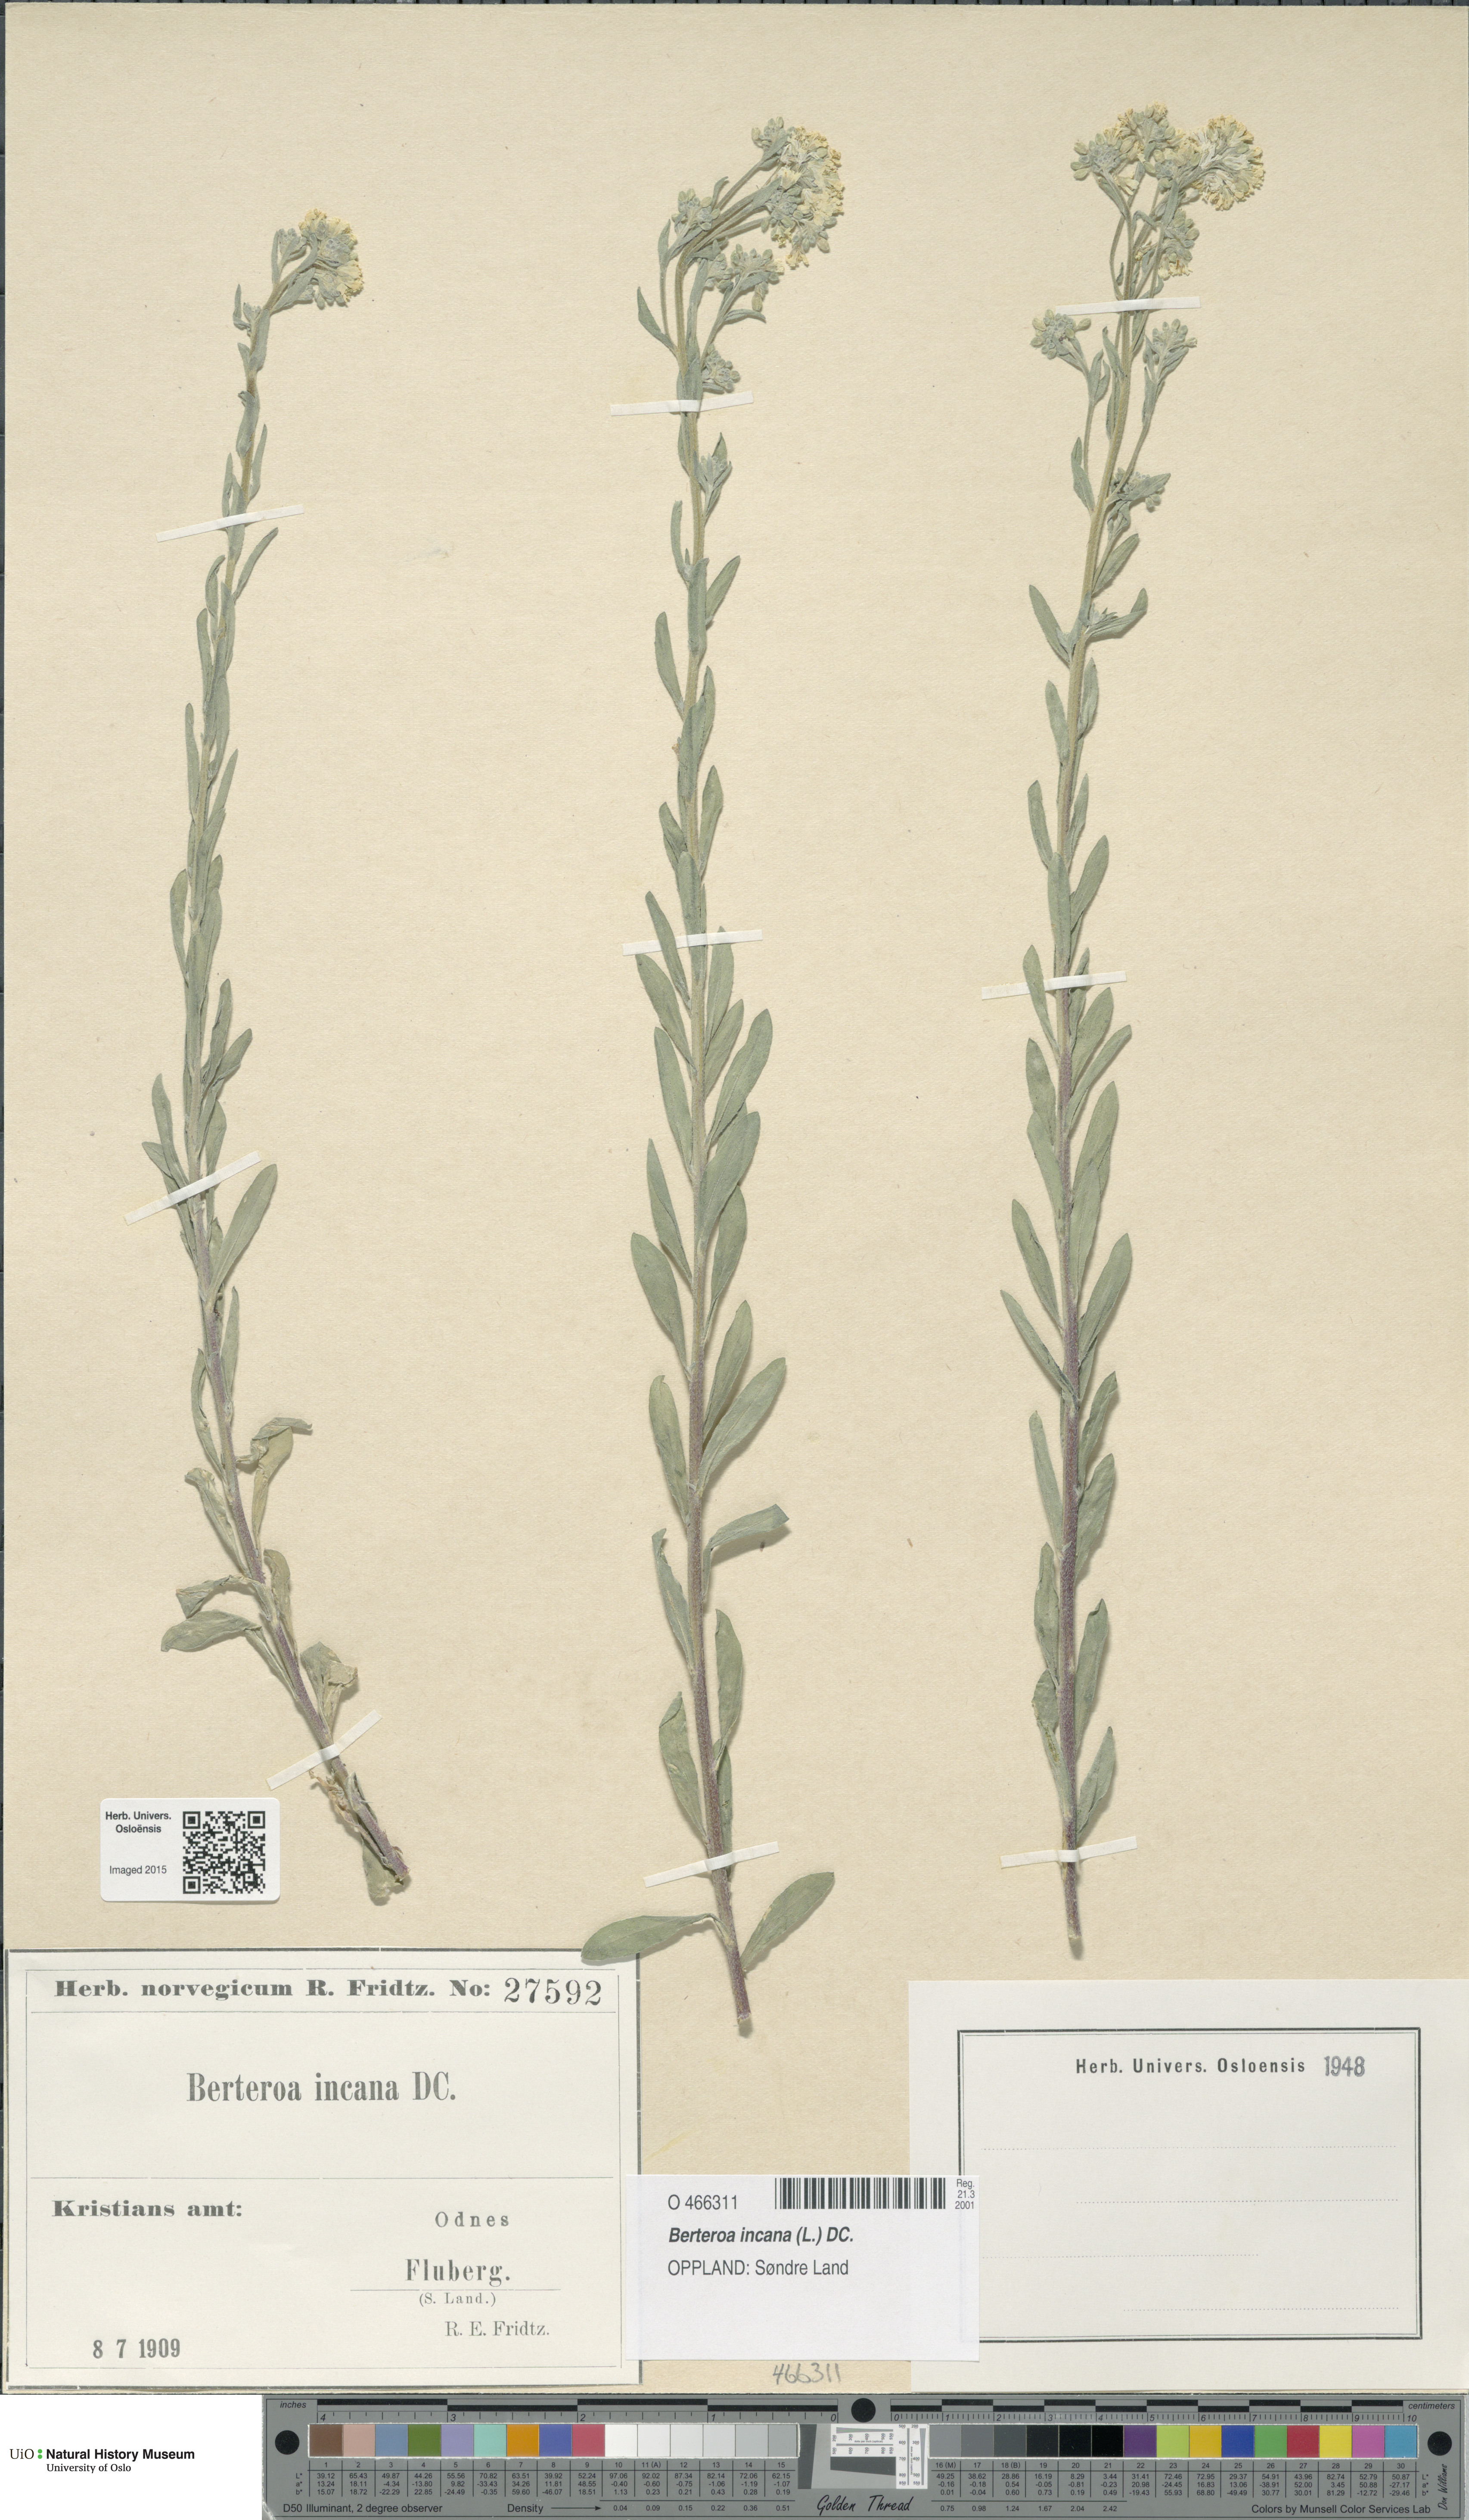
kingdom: Plantae
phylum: Tracheophyta
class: Magnoliopsida
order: Brassicales
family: Brassicaceae
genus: Berteroa
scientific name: Berteroa incana
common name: Hoary alison
